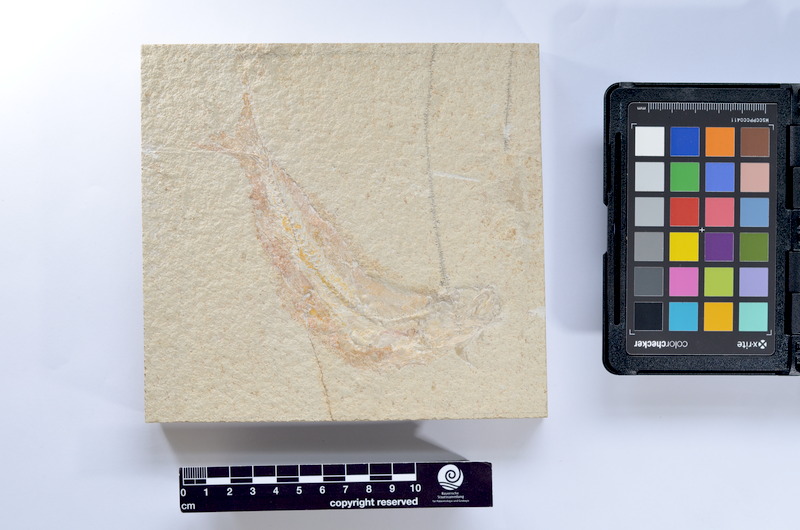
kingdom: Animalia
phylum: Chordata
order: Elopiformes
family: Anaethalionidae
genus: Anaethalion
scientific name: Anaethalion knorri
